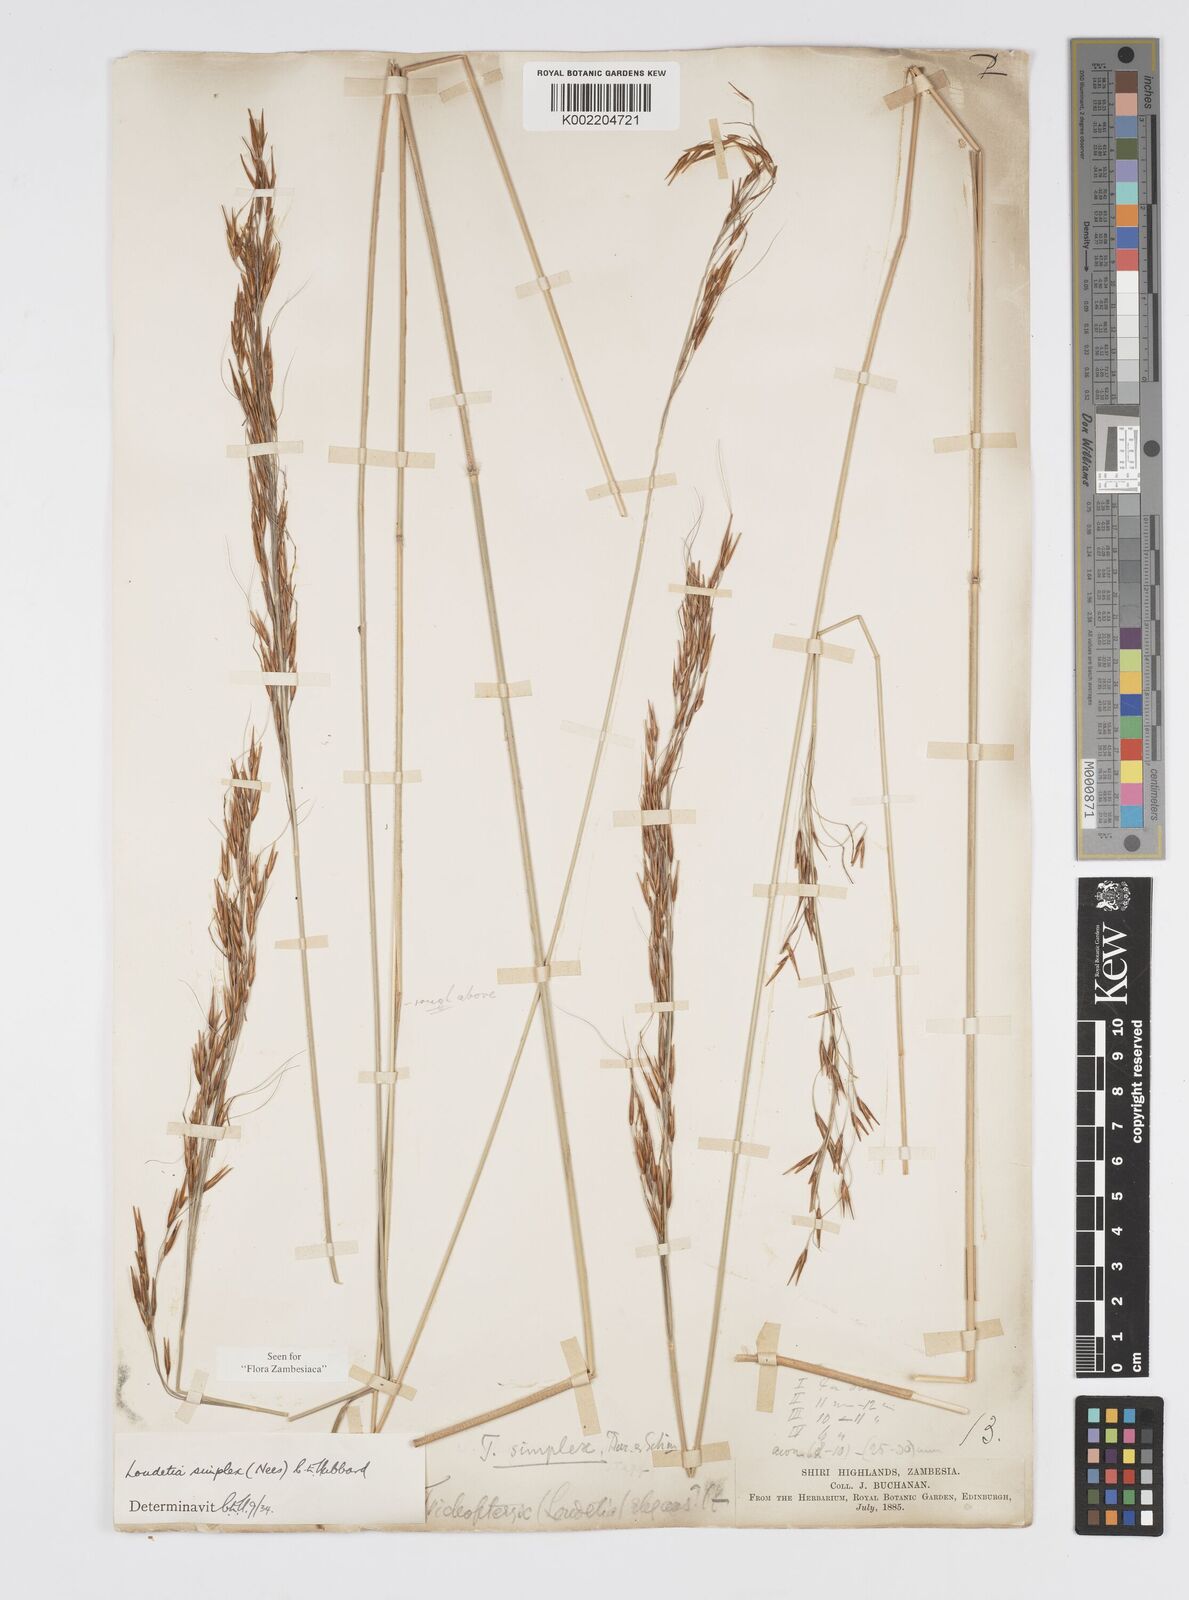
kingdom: Plantae
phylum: Tracheophyta
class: Liliopsida
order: Poales
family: Poaceae
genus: Loudetia
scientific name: Loudetia simplex
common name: Common russet grass
